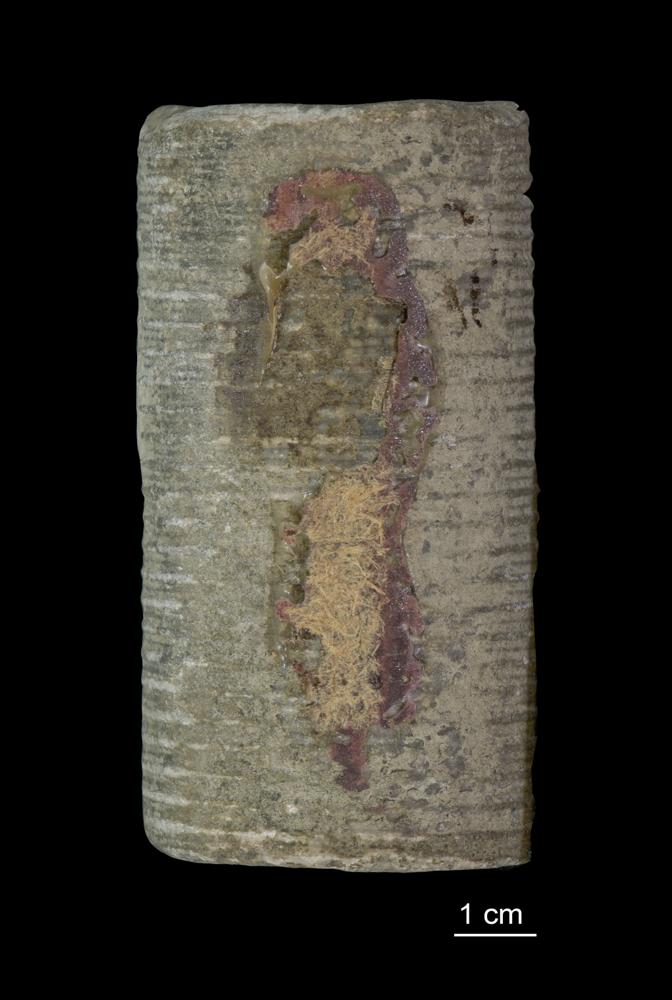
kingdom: Animalia
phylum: Echinodermata
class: Crinoidea
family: Crotalocrinitidae
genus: Crotalocrinus
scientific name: Crotalocrinus
